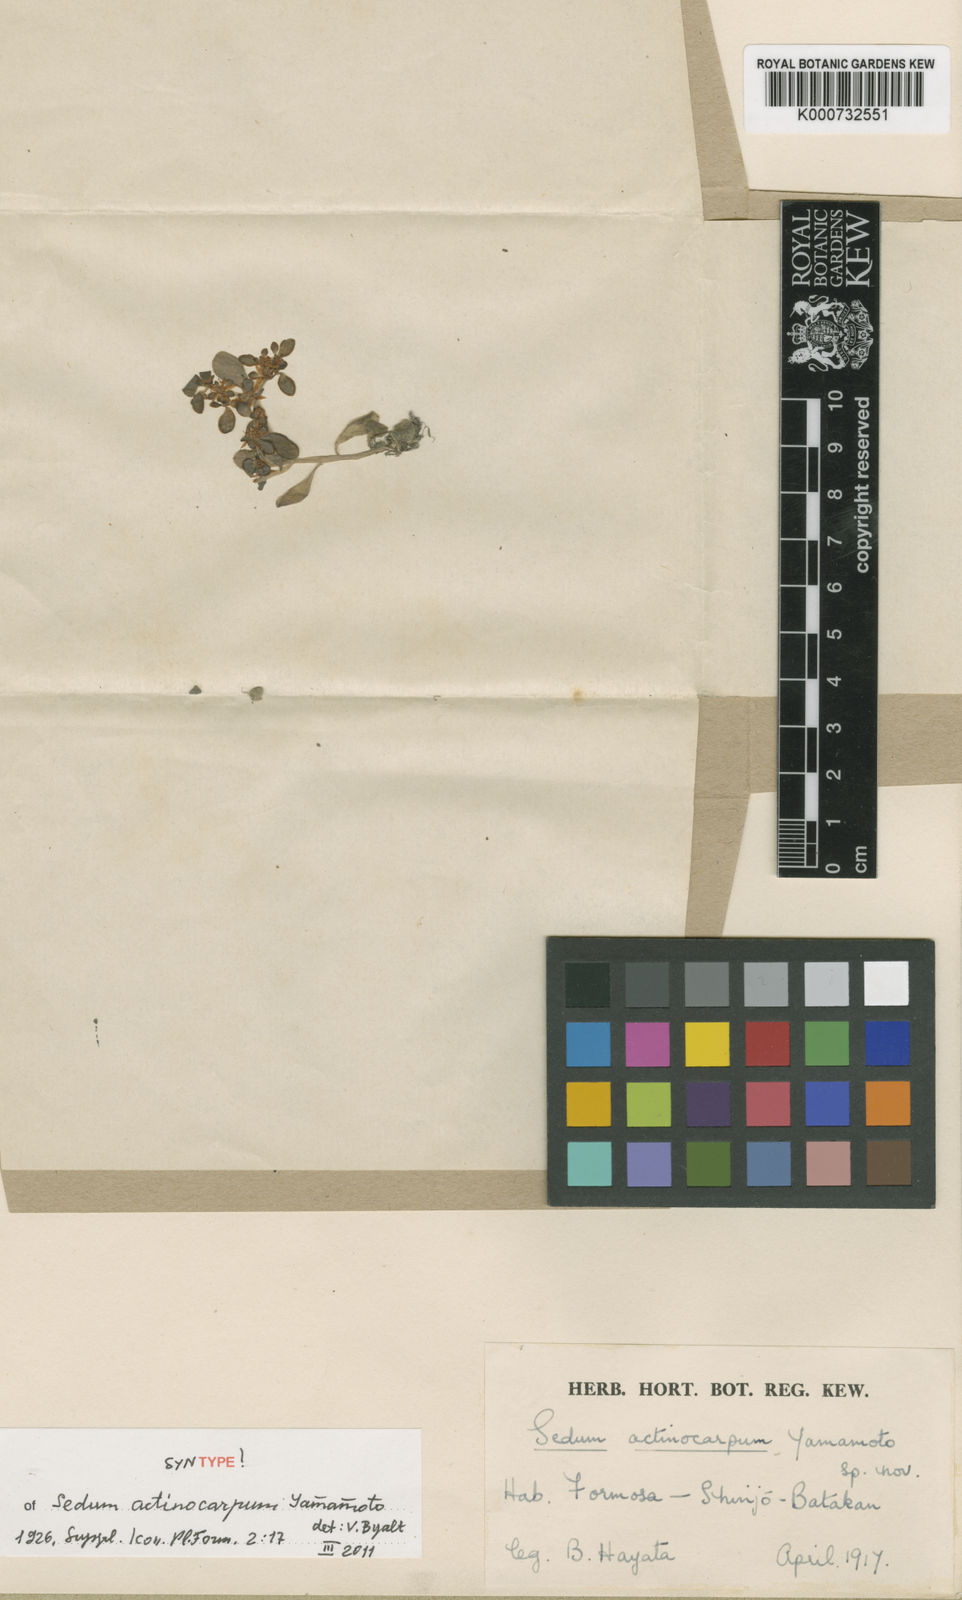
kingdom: Plantae
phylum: Tracheophyta
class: Magnoliopsida
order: Saxifragales
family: Crassulaceae
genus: Sedum
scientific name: Sedum actinocarpum
